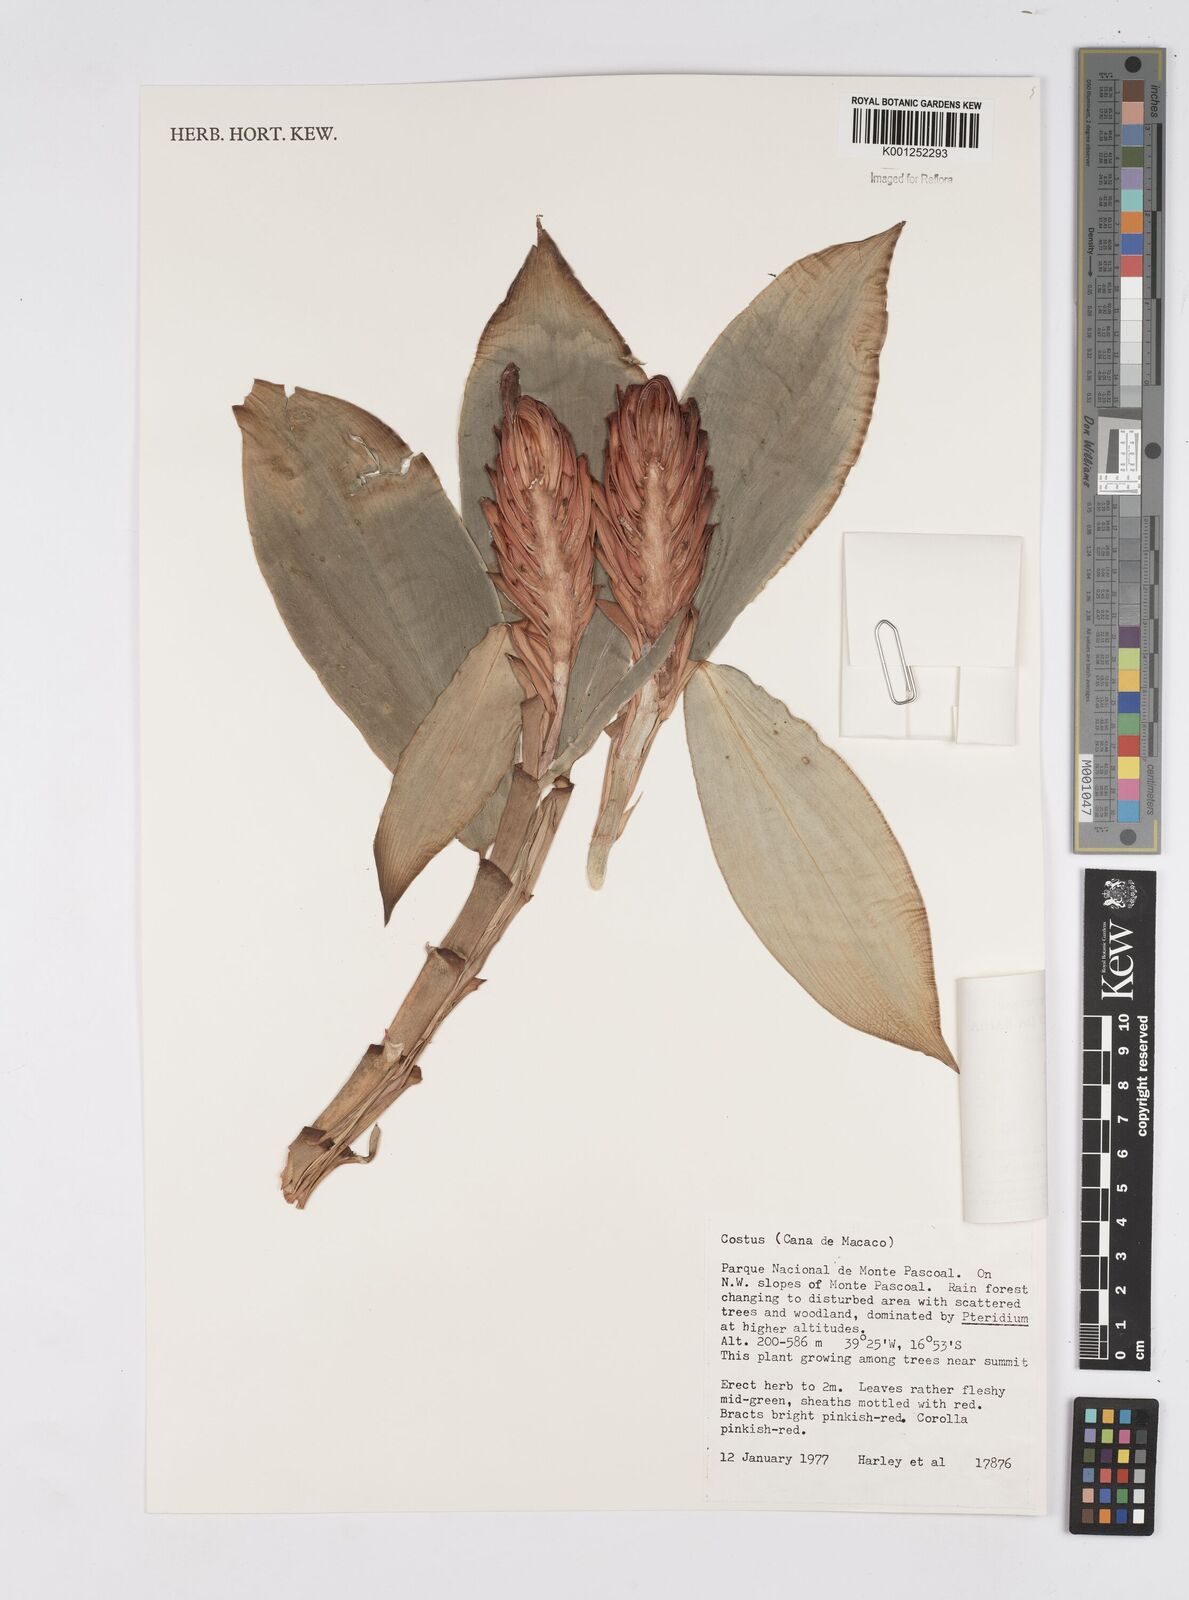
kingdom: Plantae
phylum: Tracheophyta
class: Liliopsida
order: Zingiberales
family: Costaceae
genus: Costus
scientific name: Costus spiralis
